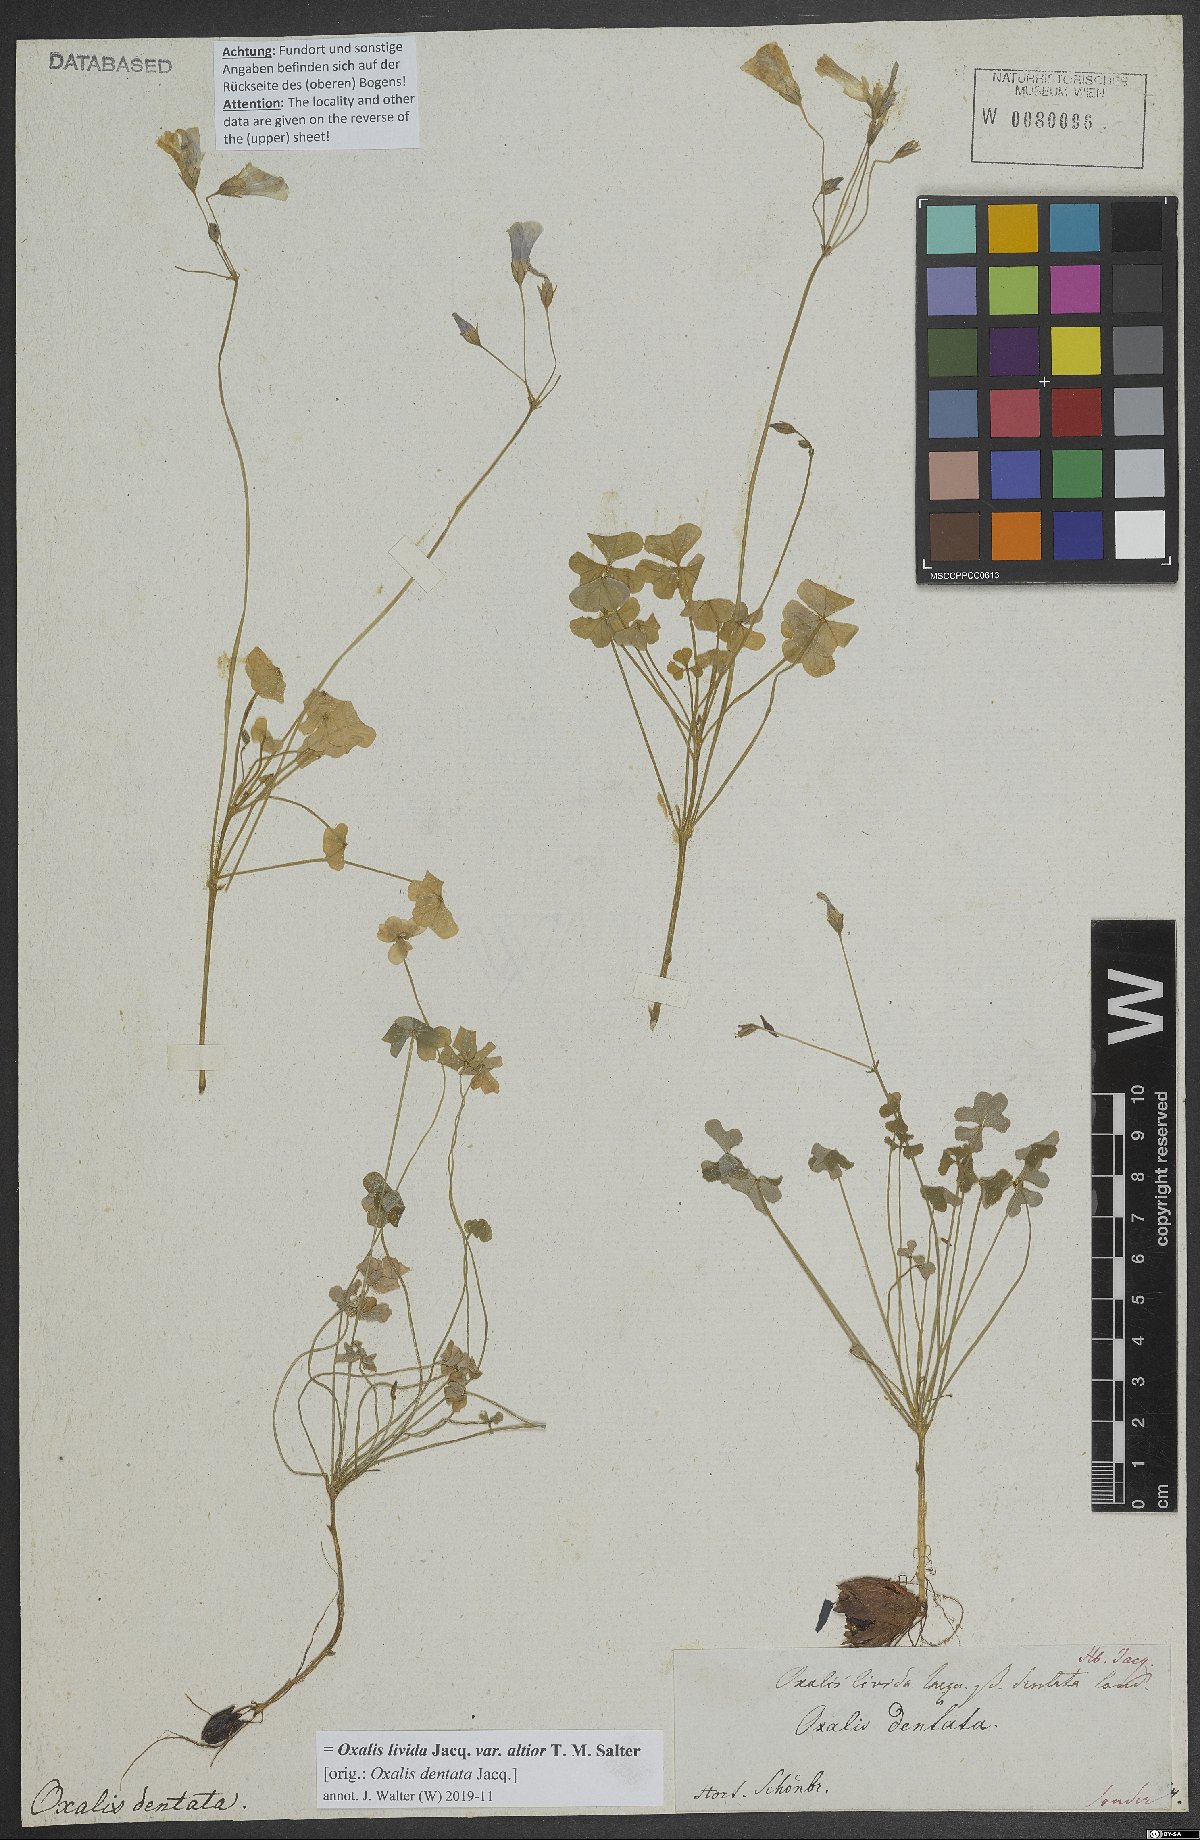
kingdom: Plantae
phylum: Tracheophyta
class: Magnoliopsida
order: Oxalidales
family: Oxalidaceae
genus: Oxalis
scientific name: Oxalis livida
